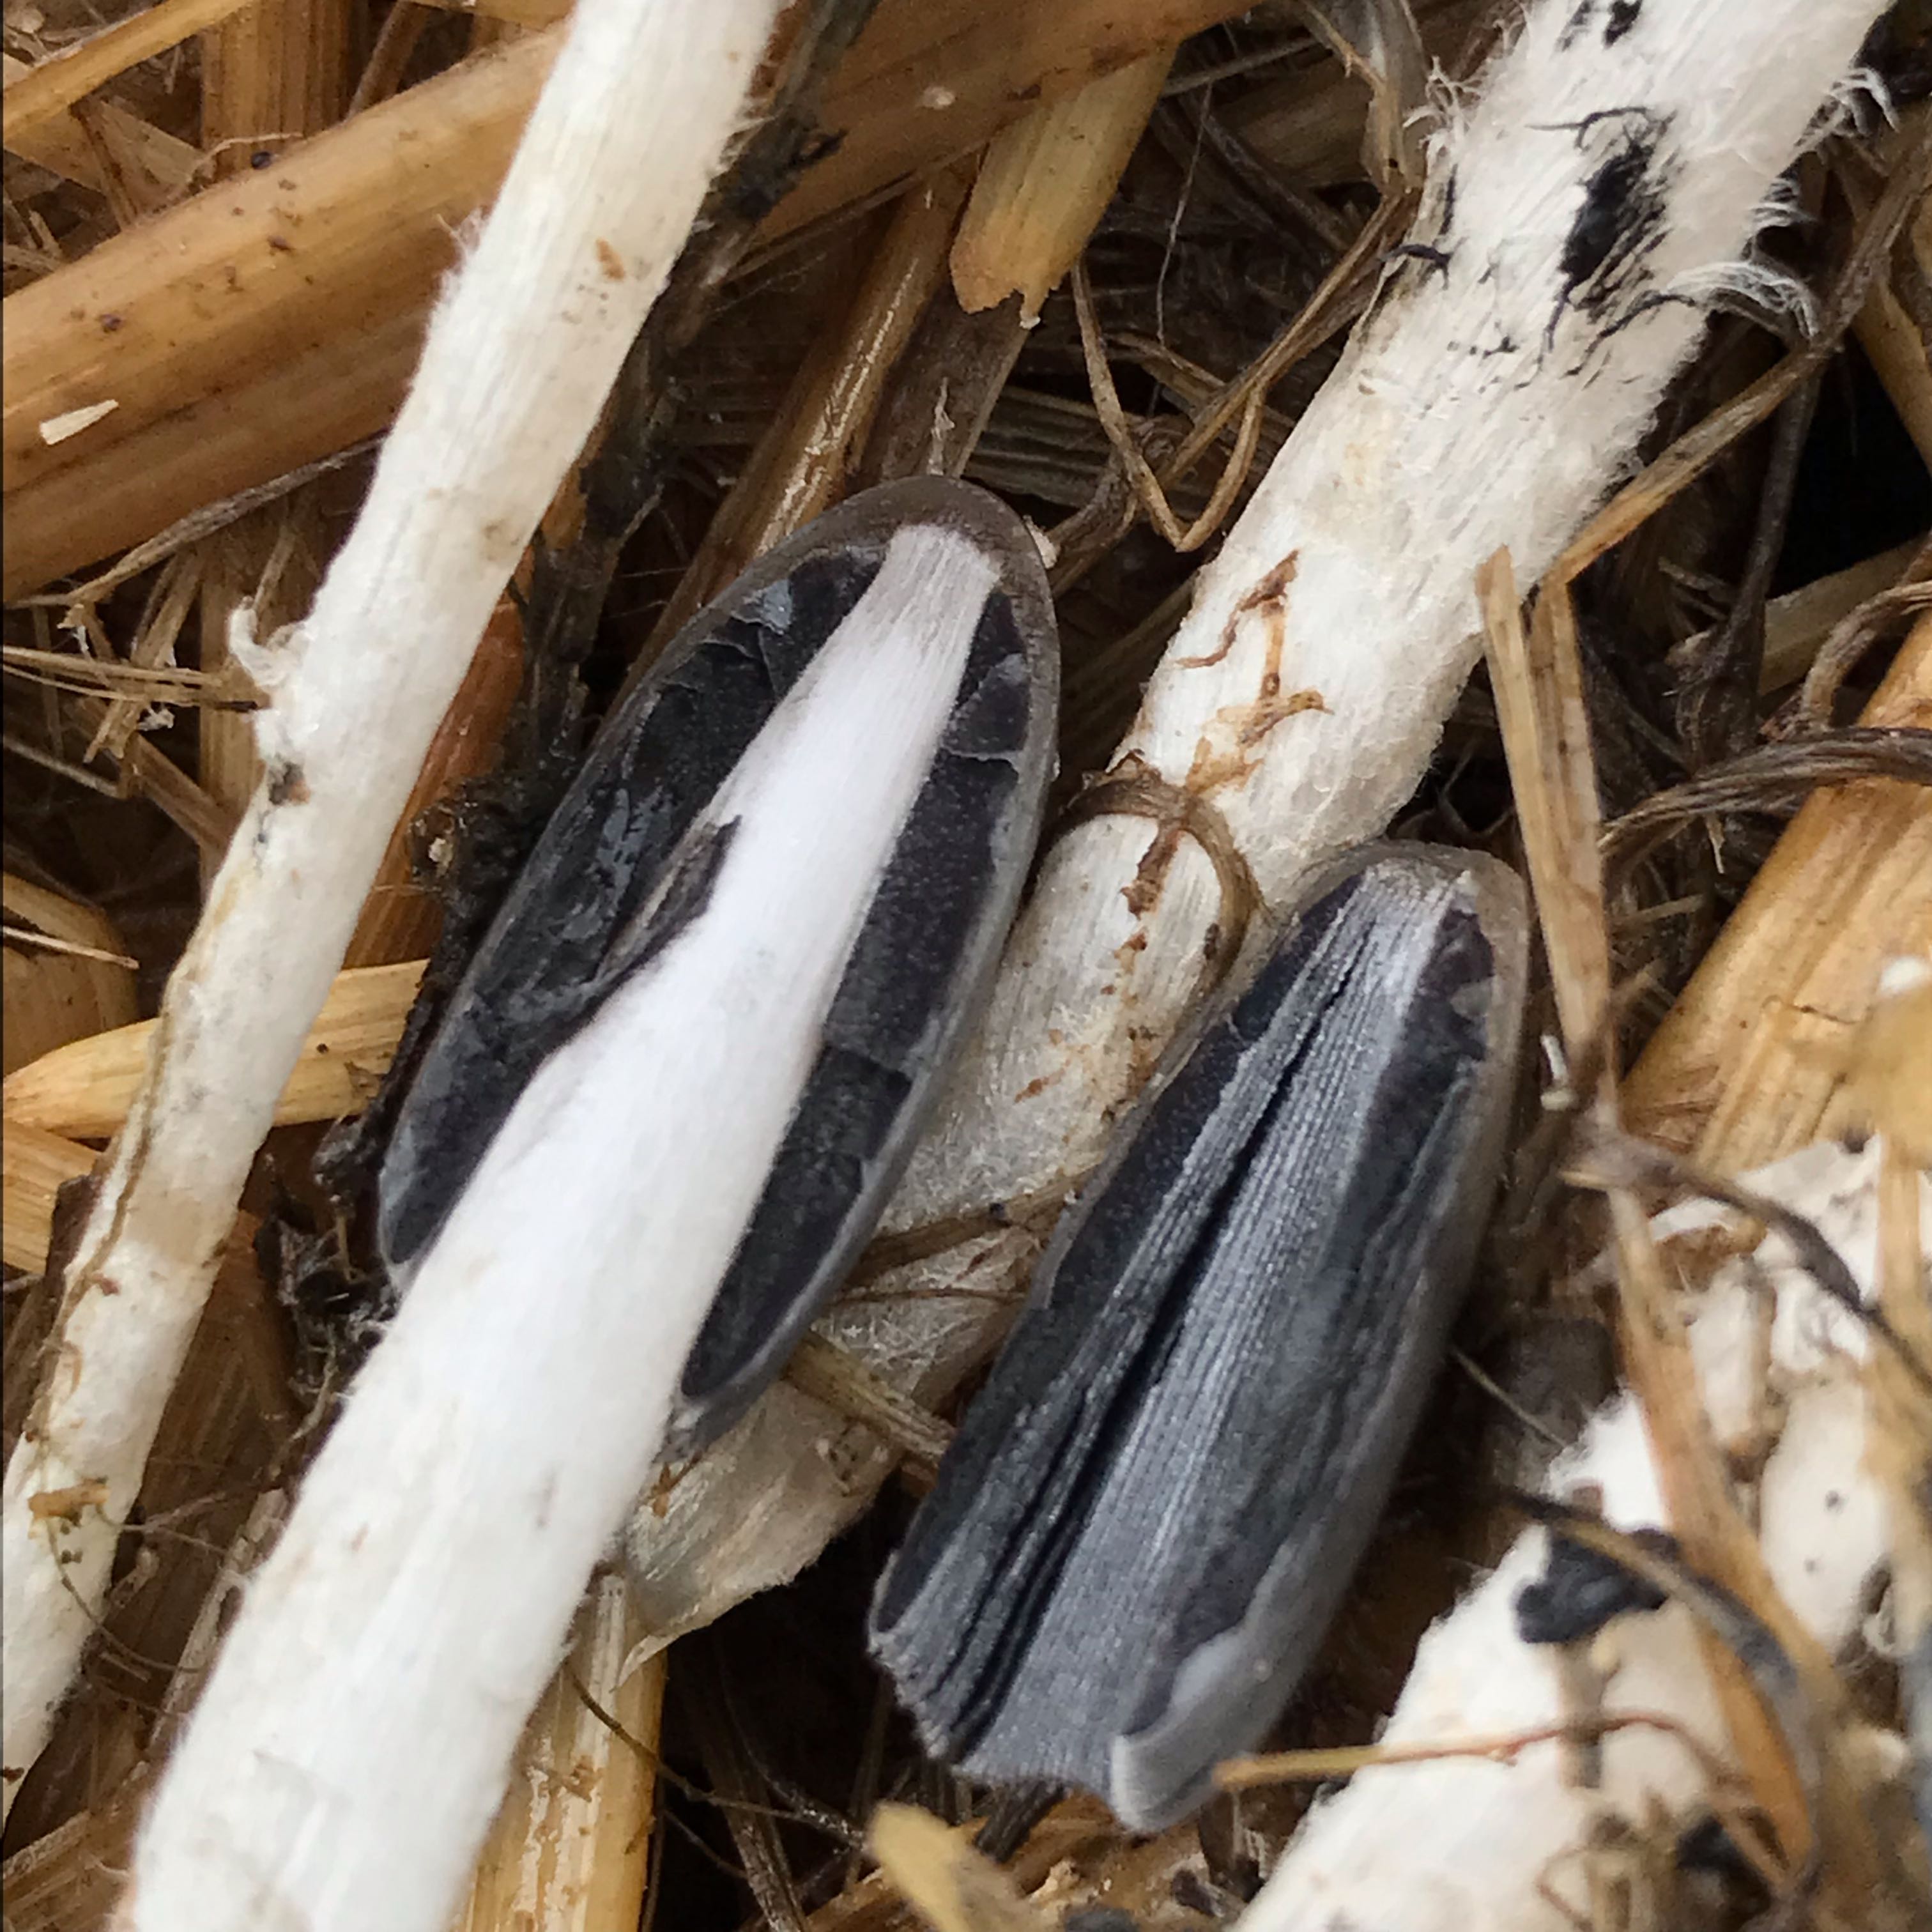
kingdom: Fungi
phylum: Basidiomycota
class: Agaricomycetes
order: Agaricales
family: Psathyrellaceae
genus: Coprinopsis
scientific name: Coprinopsis
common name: blækhat
